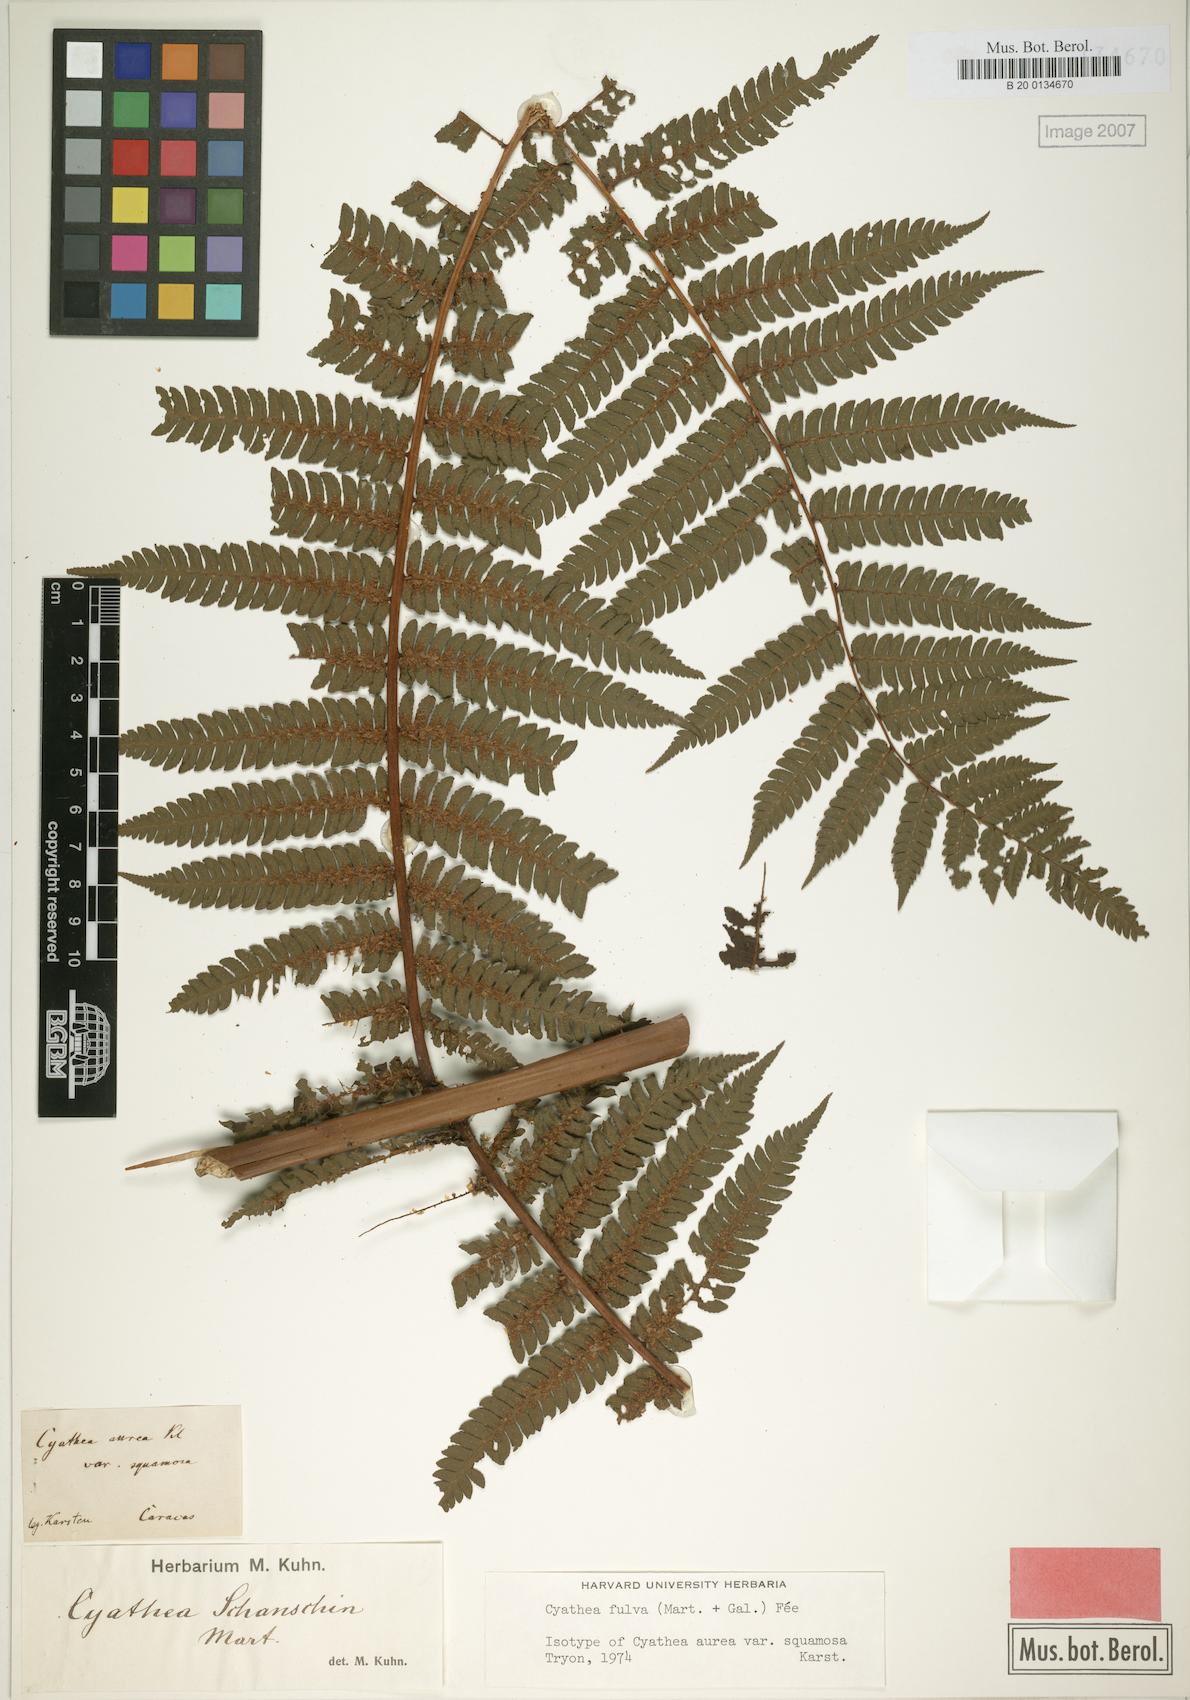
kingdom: Plantae
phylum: Tracheophyta
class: Polypodiopsida
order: Cyatheales
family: Cyatheaceae
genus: Cyathea
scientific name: Cyathea fulva
